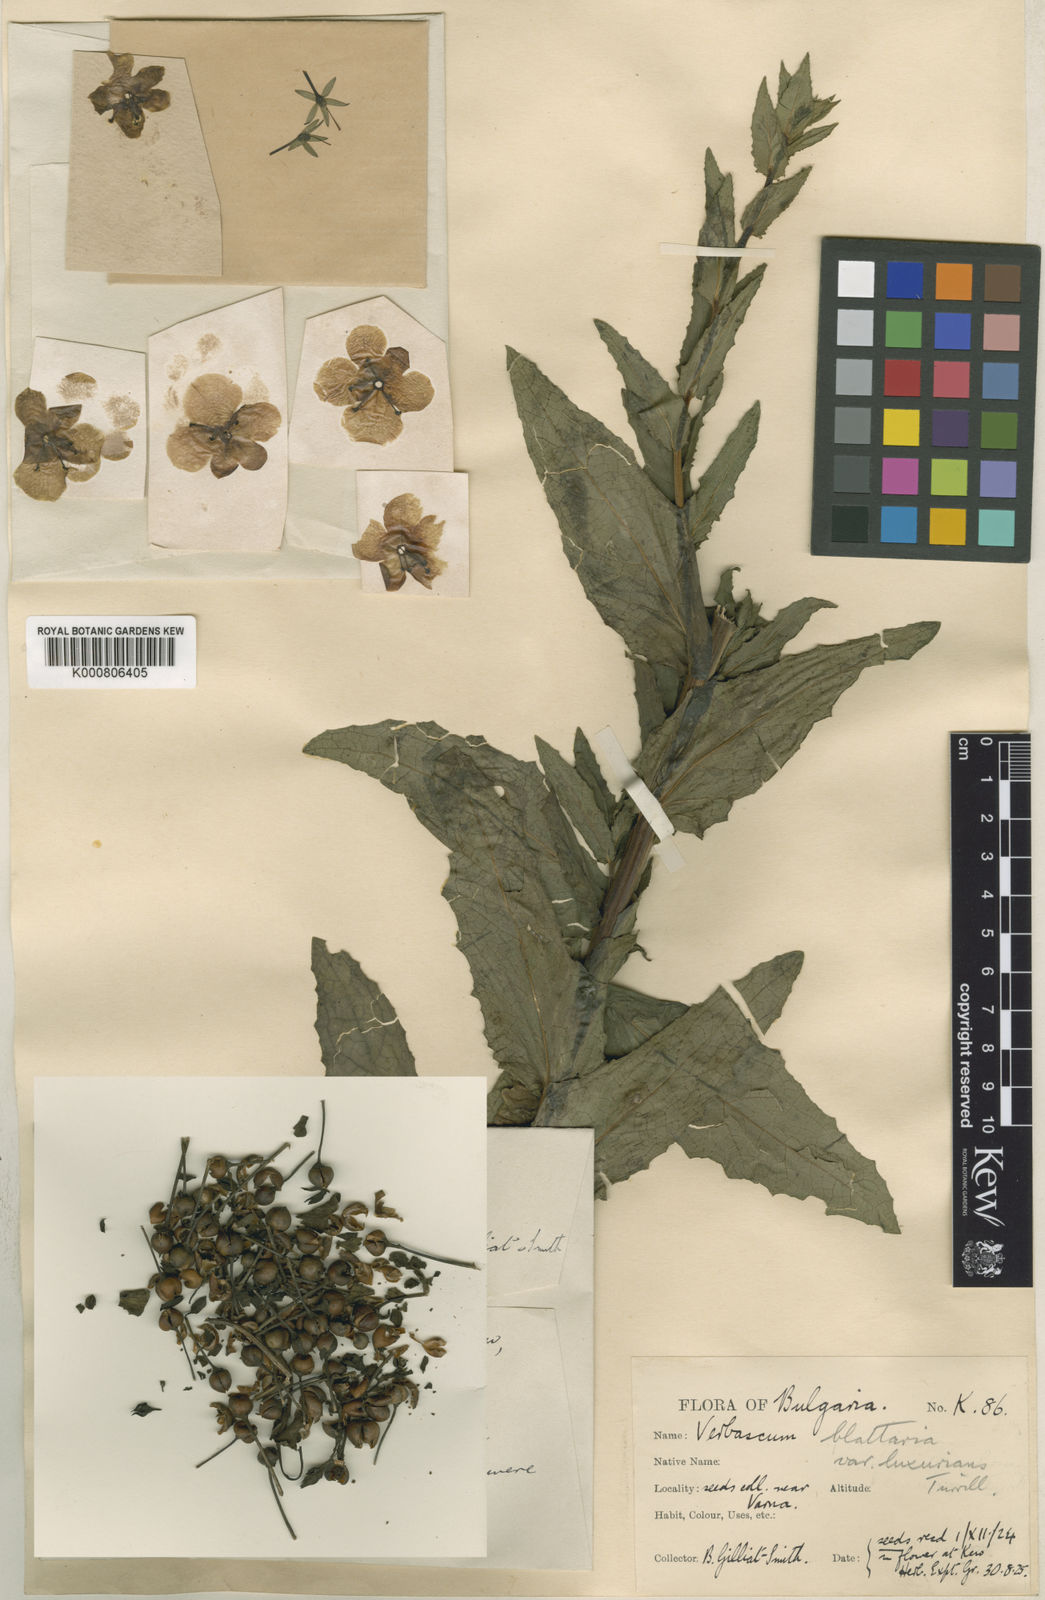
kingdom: Plantae
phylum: Tracheophyta
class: Magnoliopsida
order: Lamiales
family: Scrophulariaceae
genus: Verbascum
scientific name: Verbascum blattaria
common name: Moth mullein
